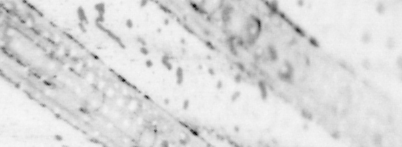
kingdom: Animalia
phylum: Chordata
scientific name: Chordata
